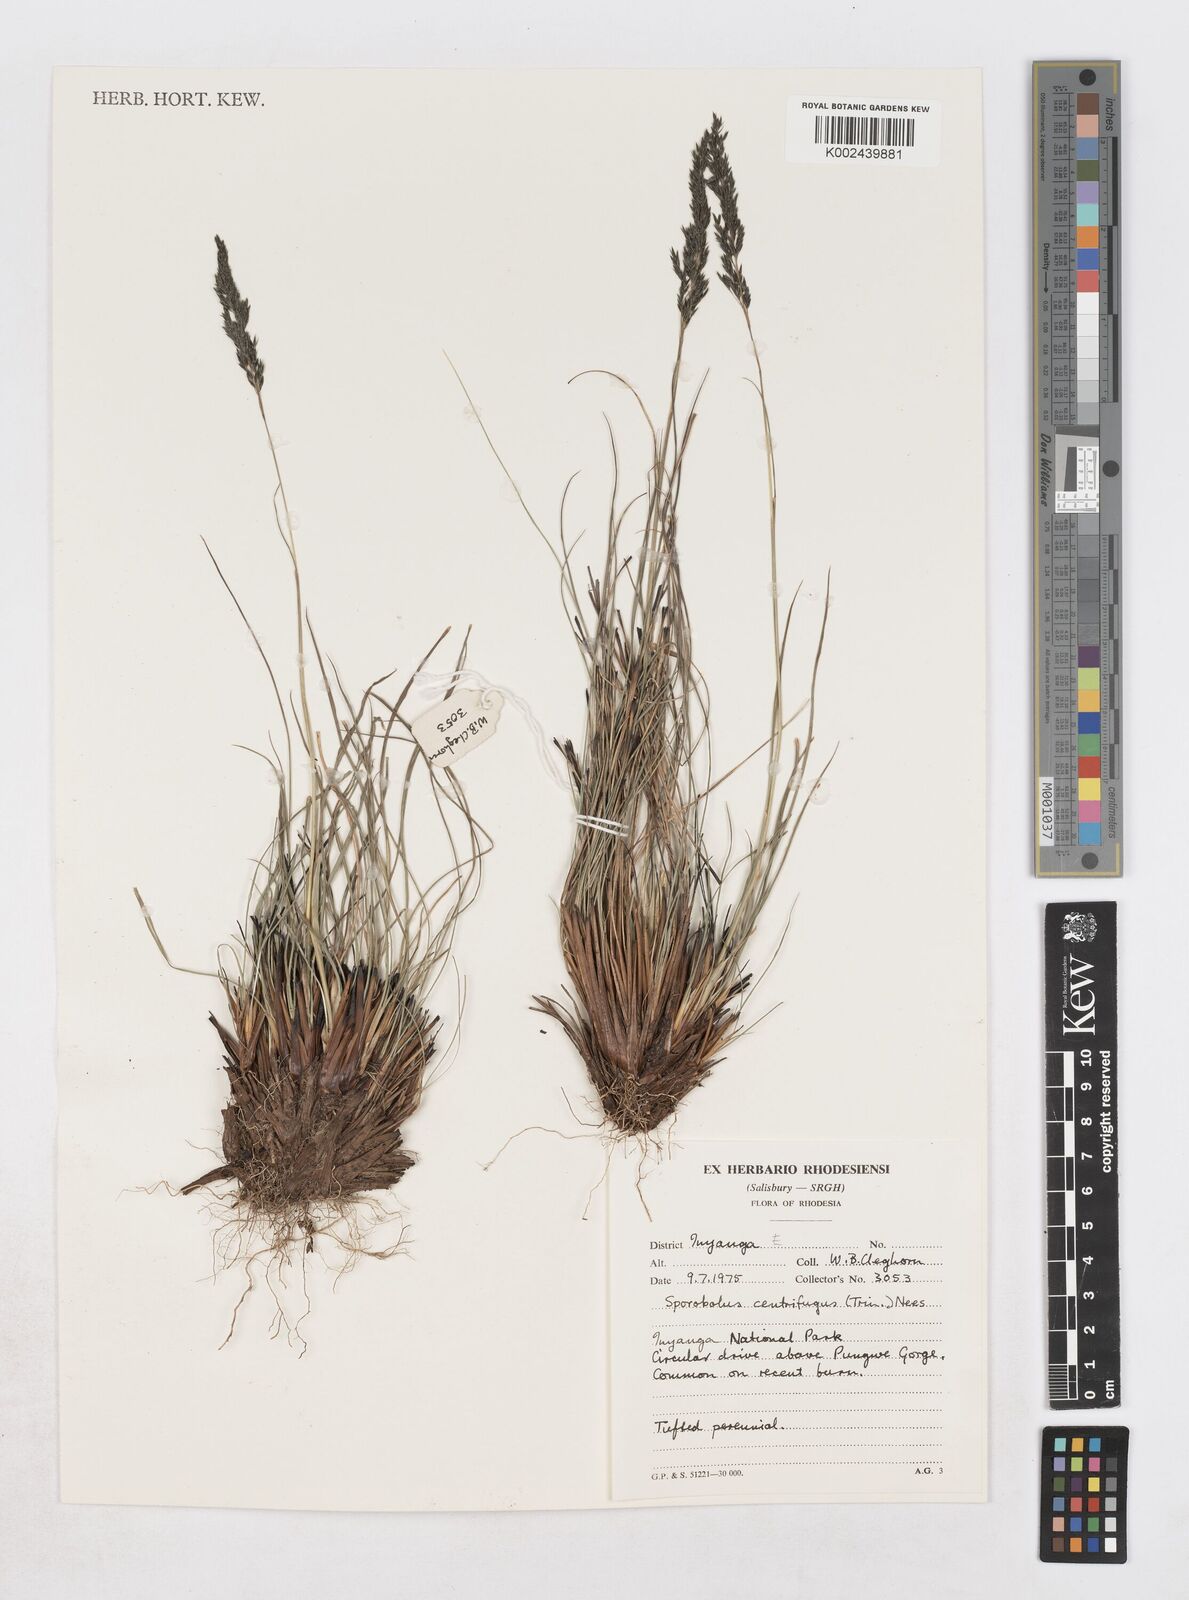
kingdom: Plantae
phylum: Tracheophyta
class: Liliopsida
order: Poales
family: Poaceae
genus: Sporobolus
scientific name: Sporobolus centrifugus
